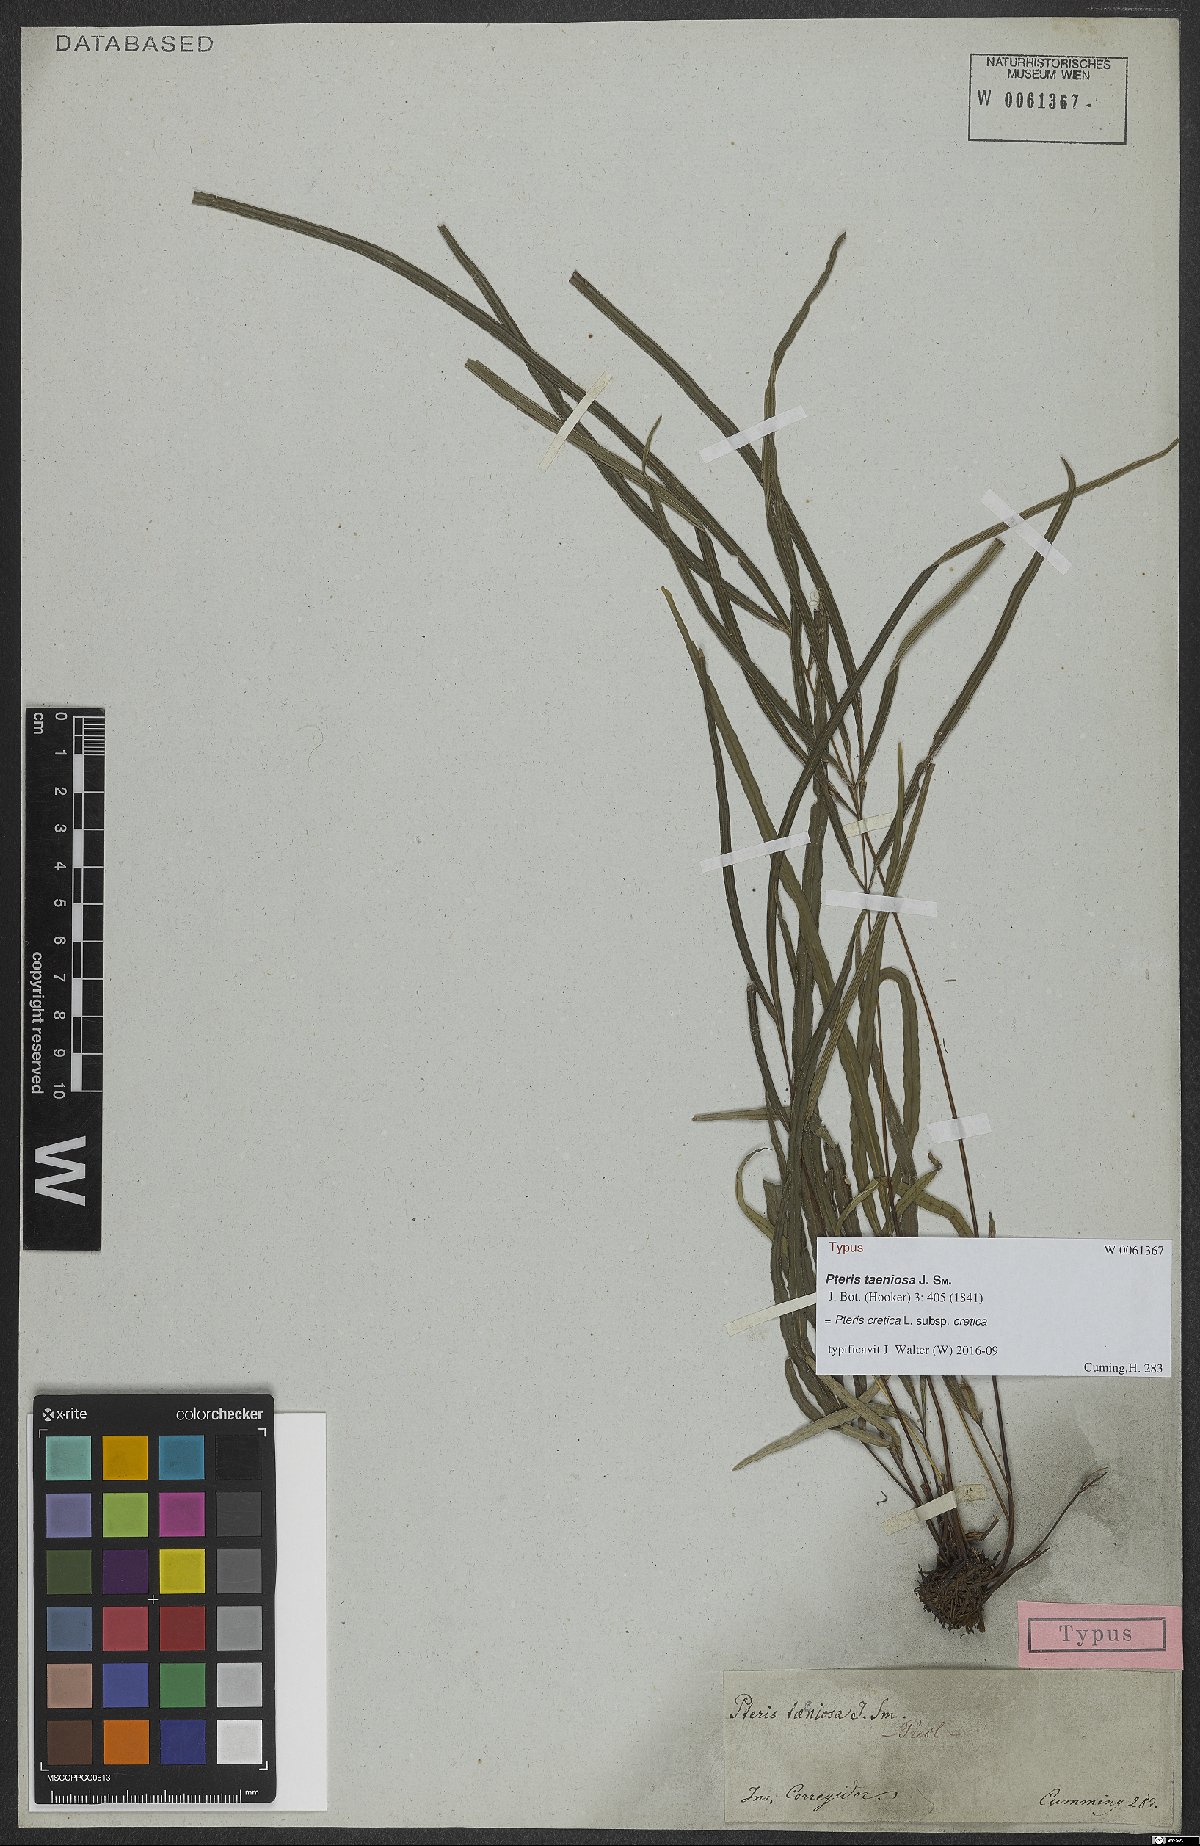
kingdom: Plantae
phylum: Tracheophyta
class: Polypodiopsida
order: Polypodiales
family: Pteridaceae
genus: Pteris
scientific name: Pteris cretica
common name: Ribbon fern
